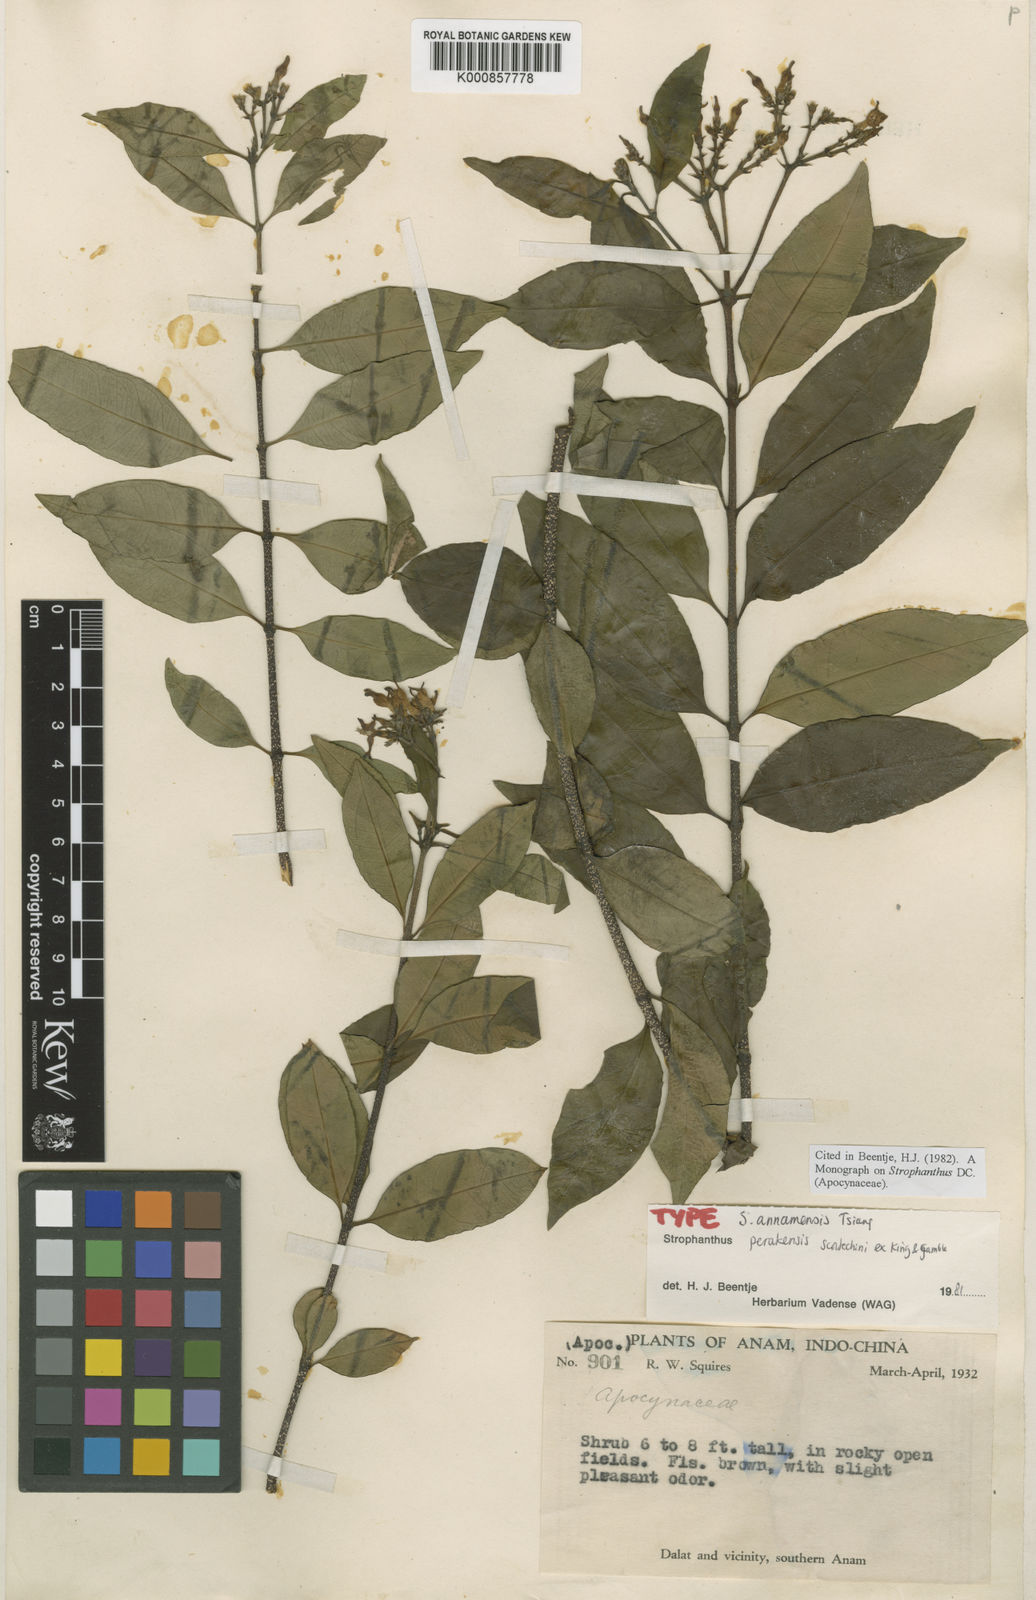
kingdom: Plantae
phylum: Tracheophyta
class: Magnoliopsida
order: Gentianales
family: Apocynaceae
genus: Strophanthus
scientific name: Strophanthus perakensis
